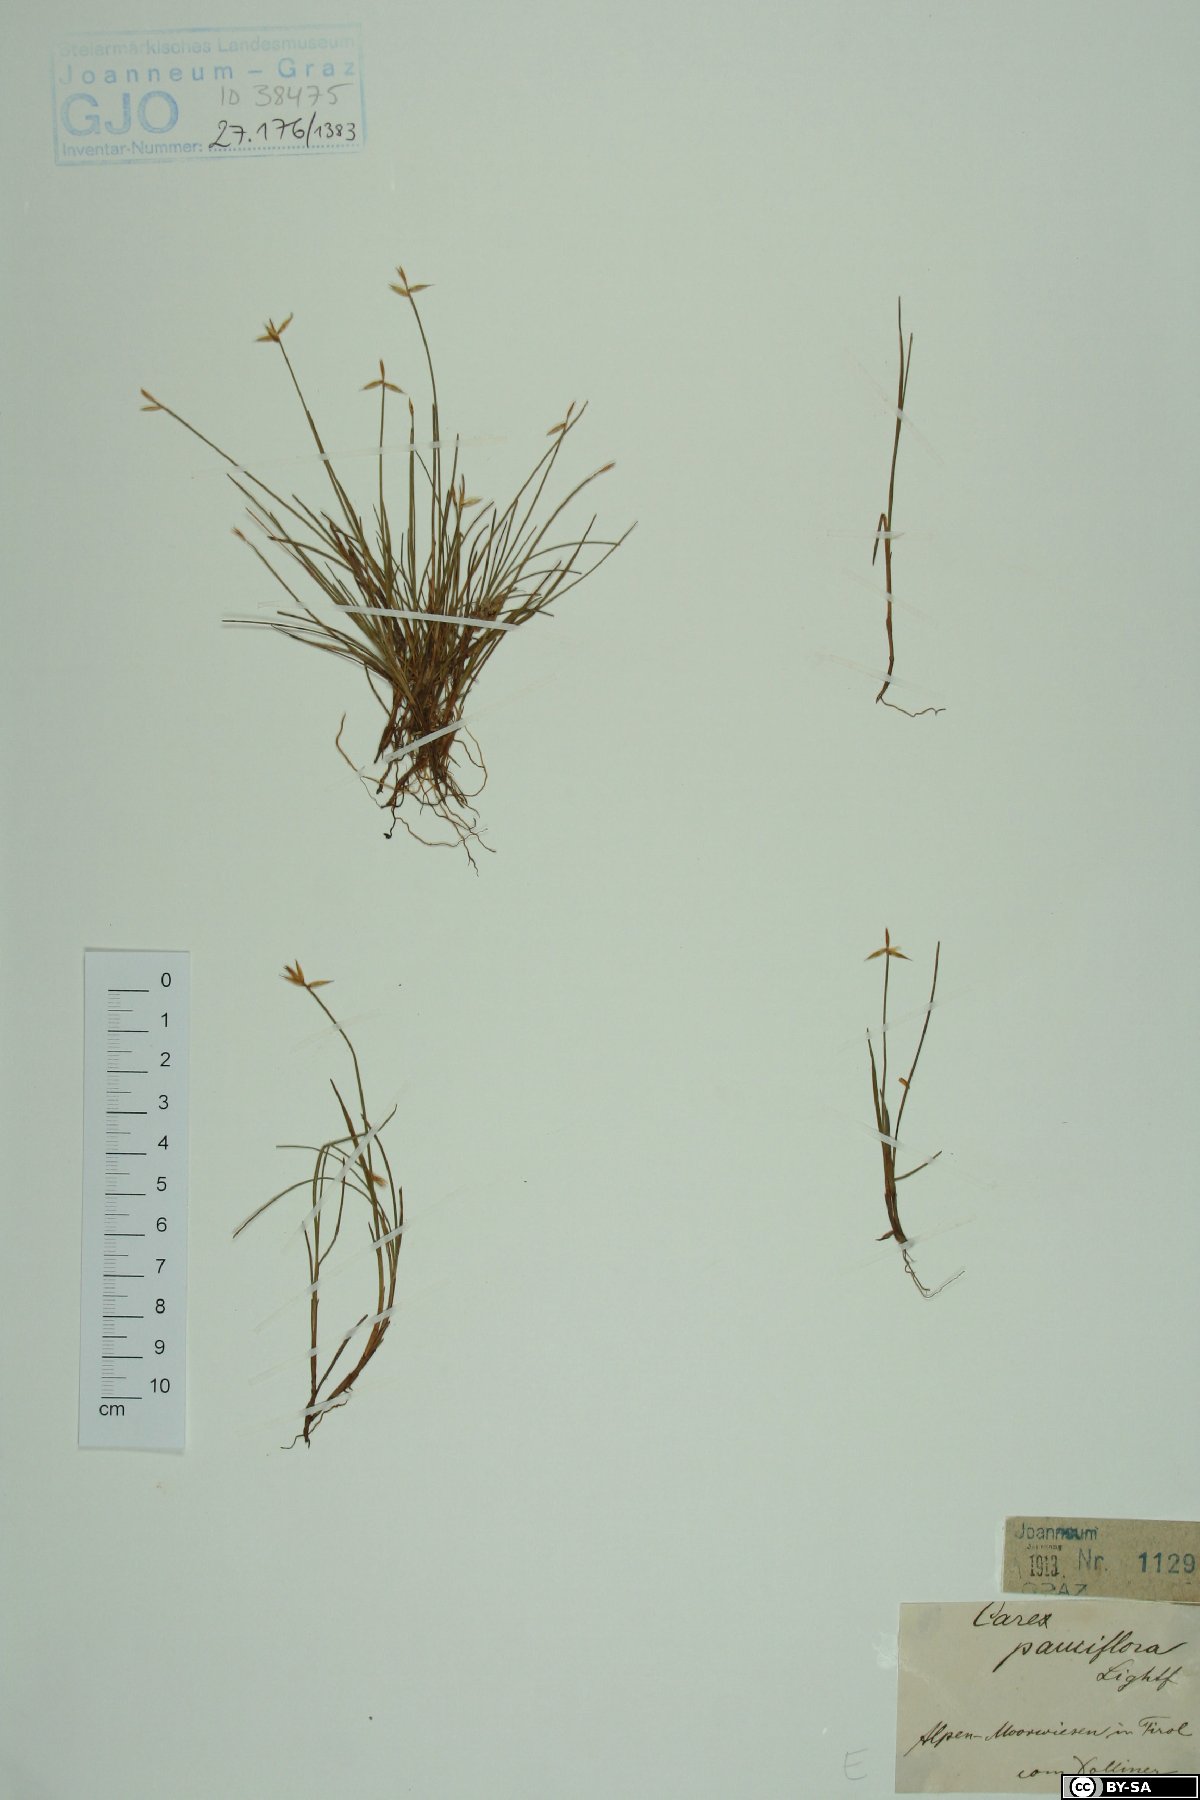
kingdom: Plantae
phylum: Tracheophyta
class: Liliopsida
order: Poales
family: Cyperaceae
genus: Carex
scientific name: Carex pauciflora
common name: Few-flowered sedge
